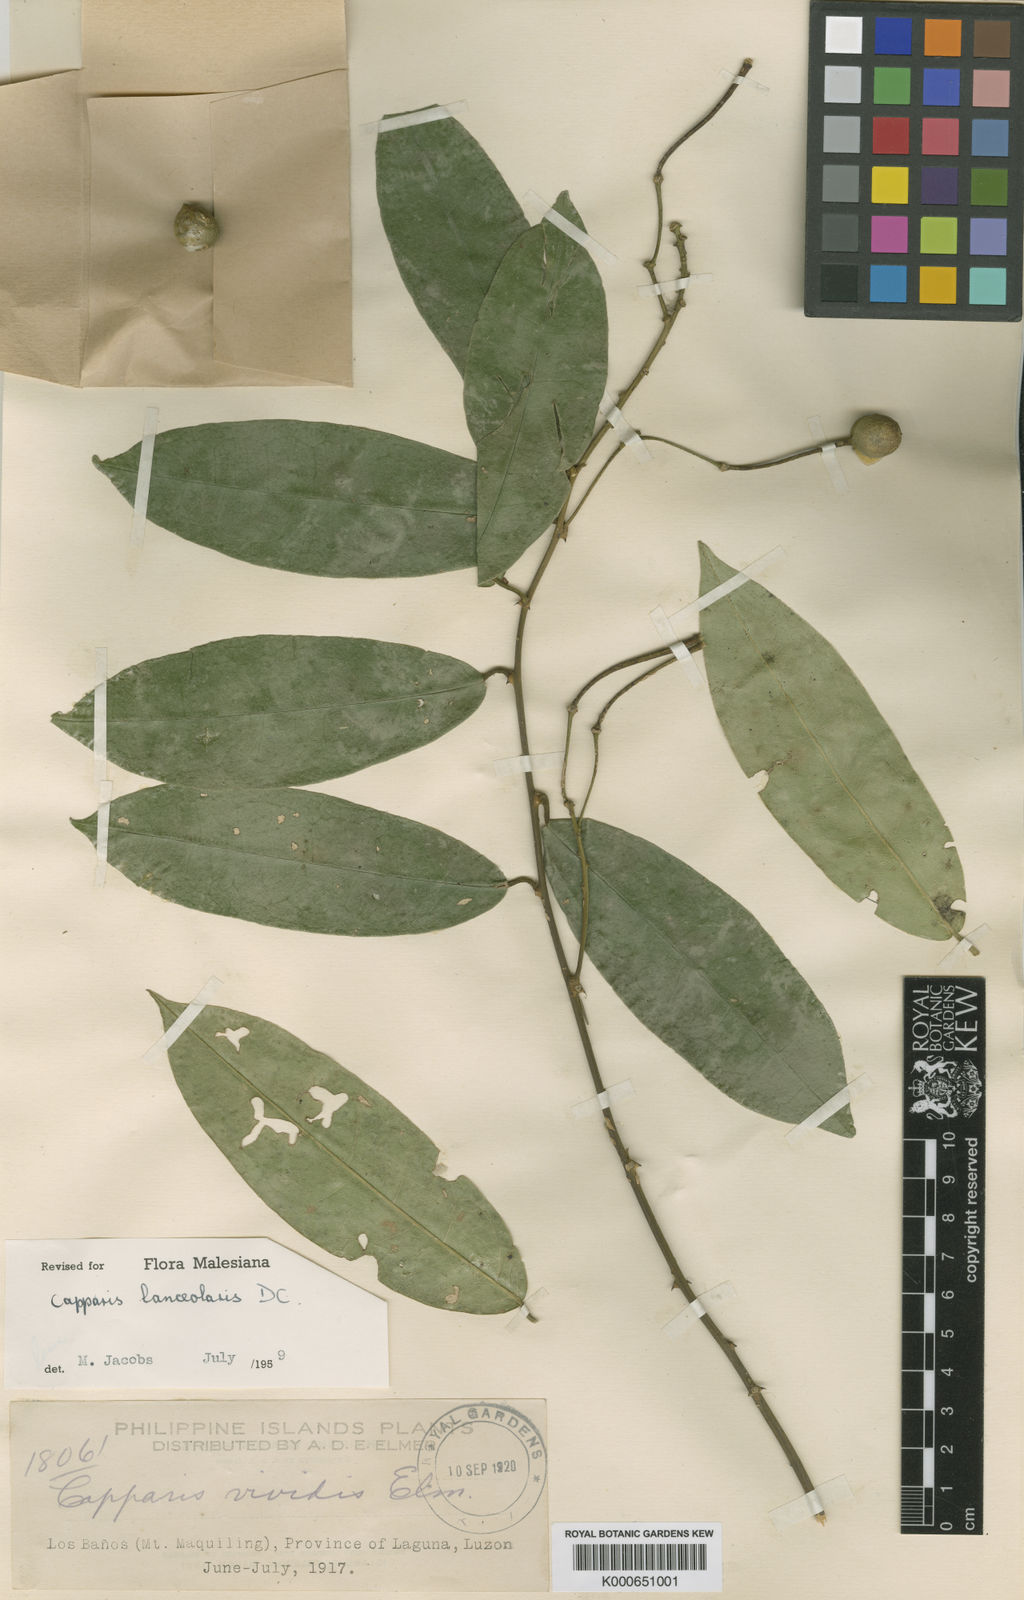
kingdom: Plantae
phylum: Tracheophyta
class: Magnoliopsida
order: Brassicales
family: Capparaceae
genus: Capparis
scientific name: Capparis lanceolaris
